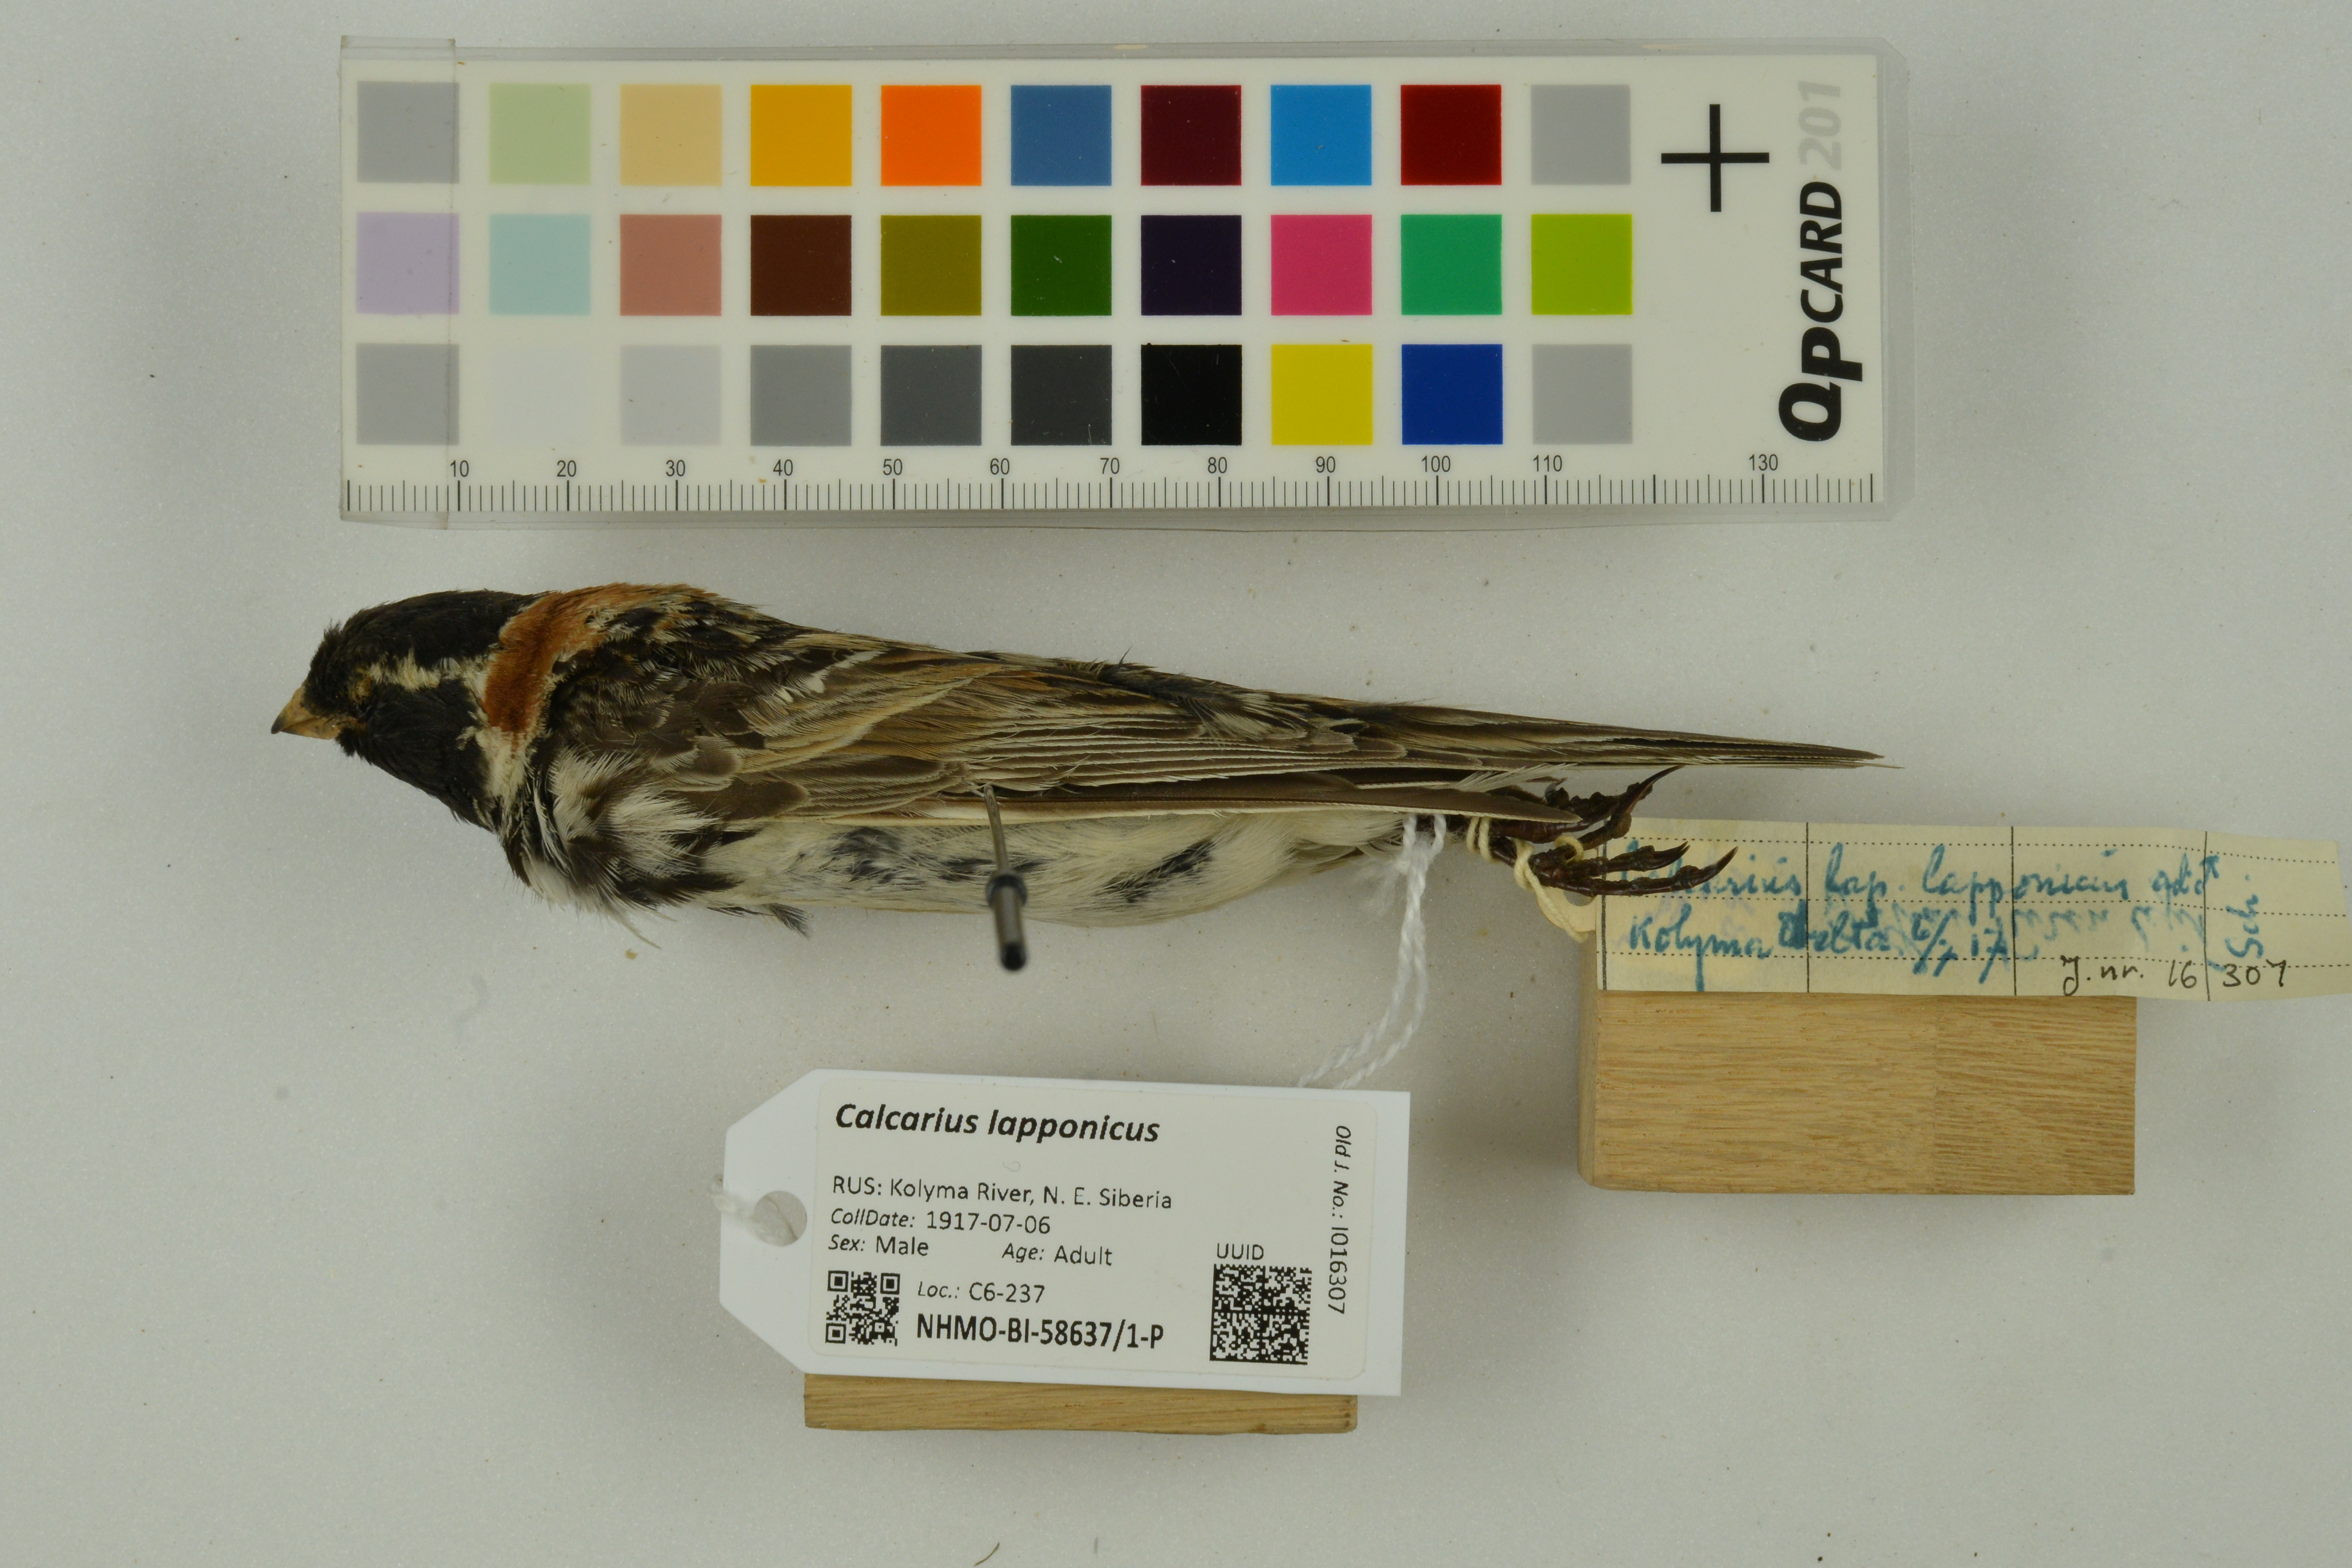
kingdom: Animalia
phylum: Chordata
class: Aves
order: Passeriformes
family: Calcariidae
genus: Calcarius
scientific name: Calcarius lapponicus
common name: Lapland longspur
